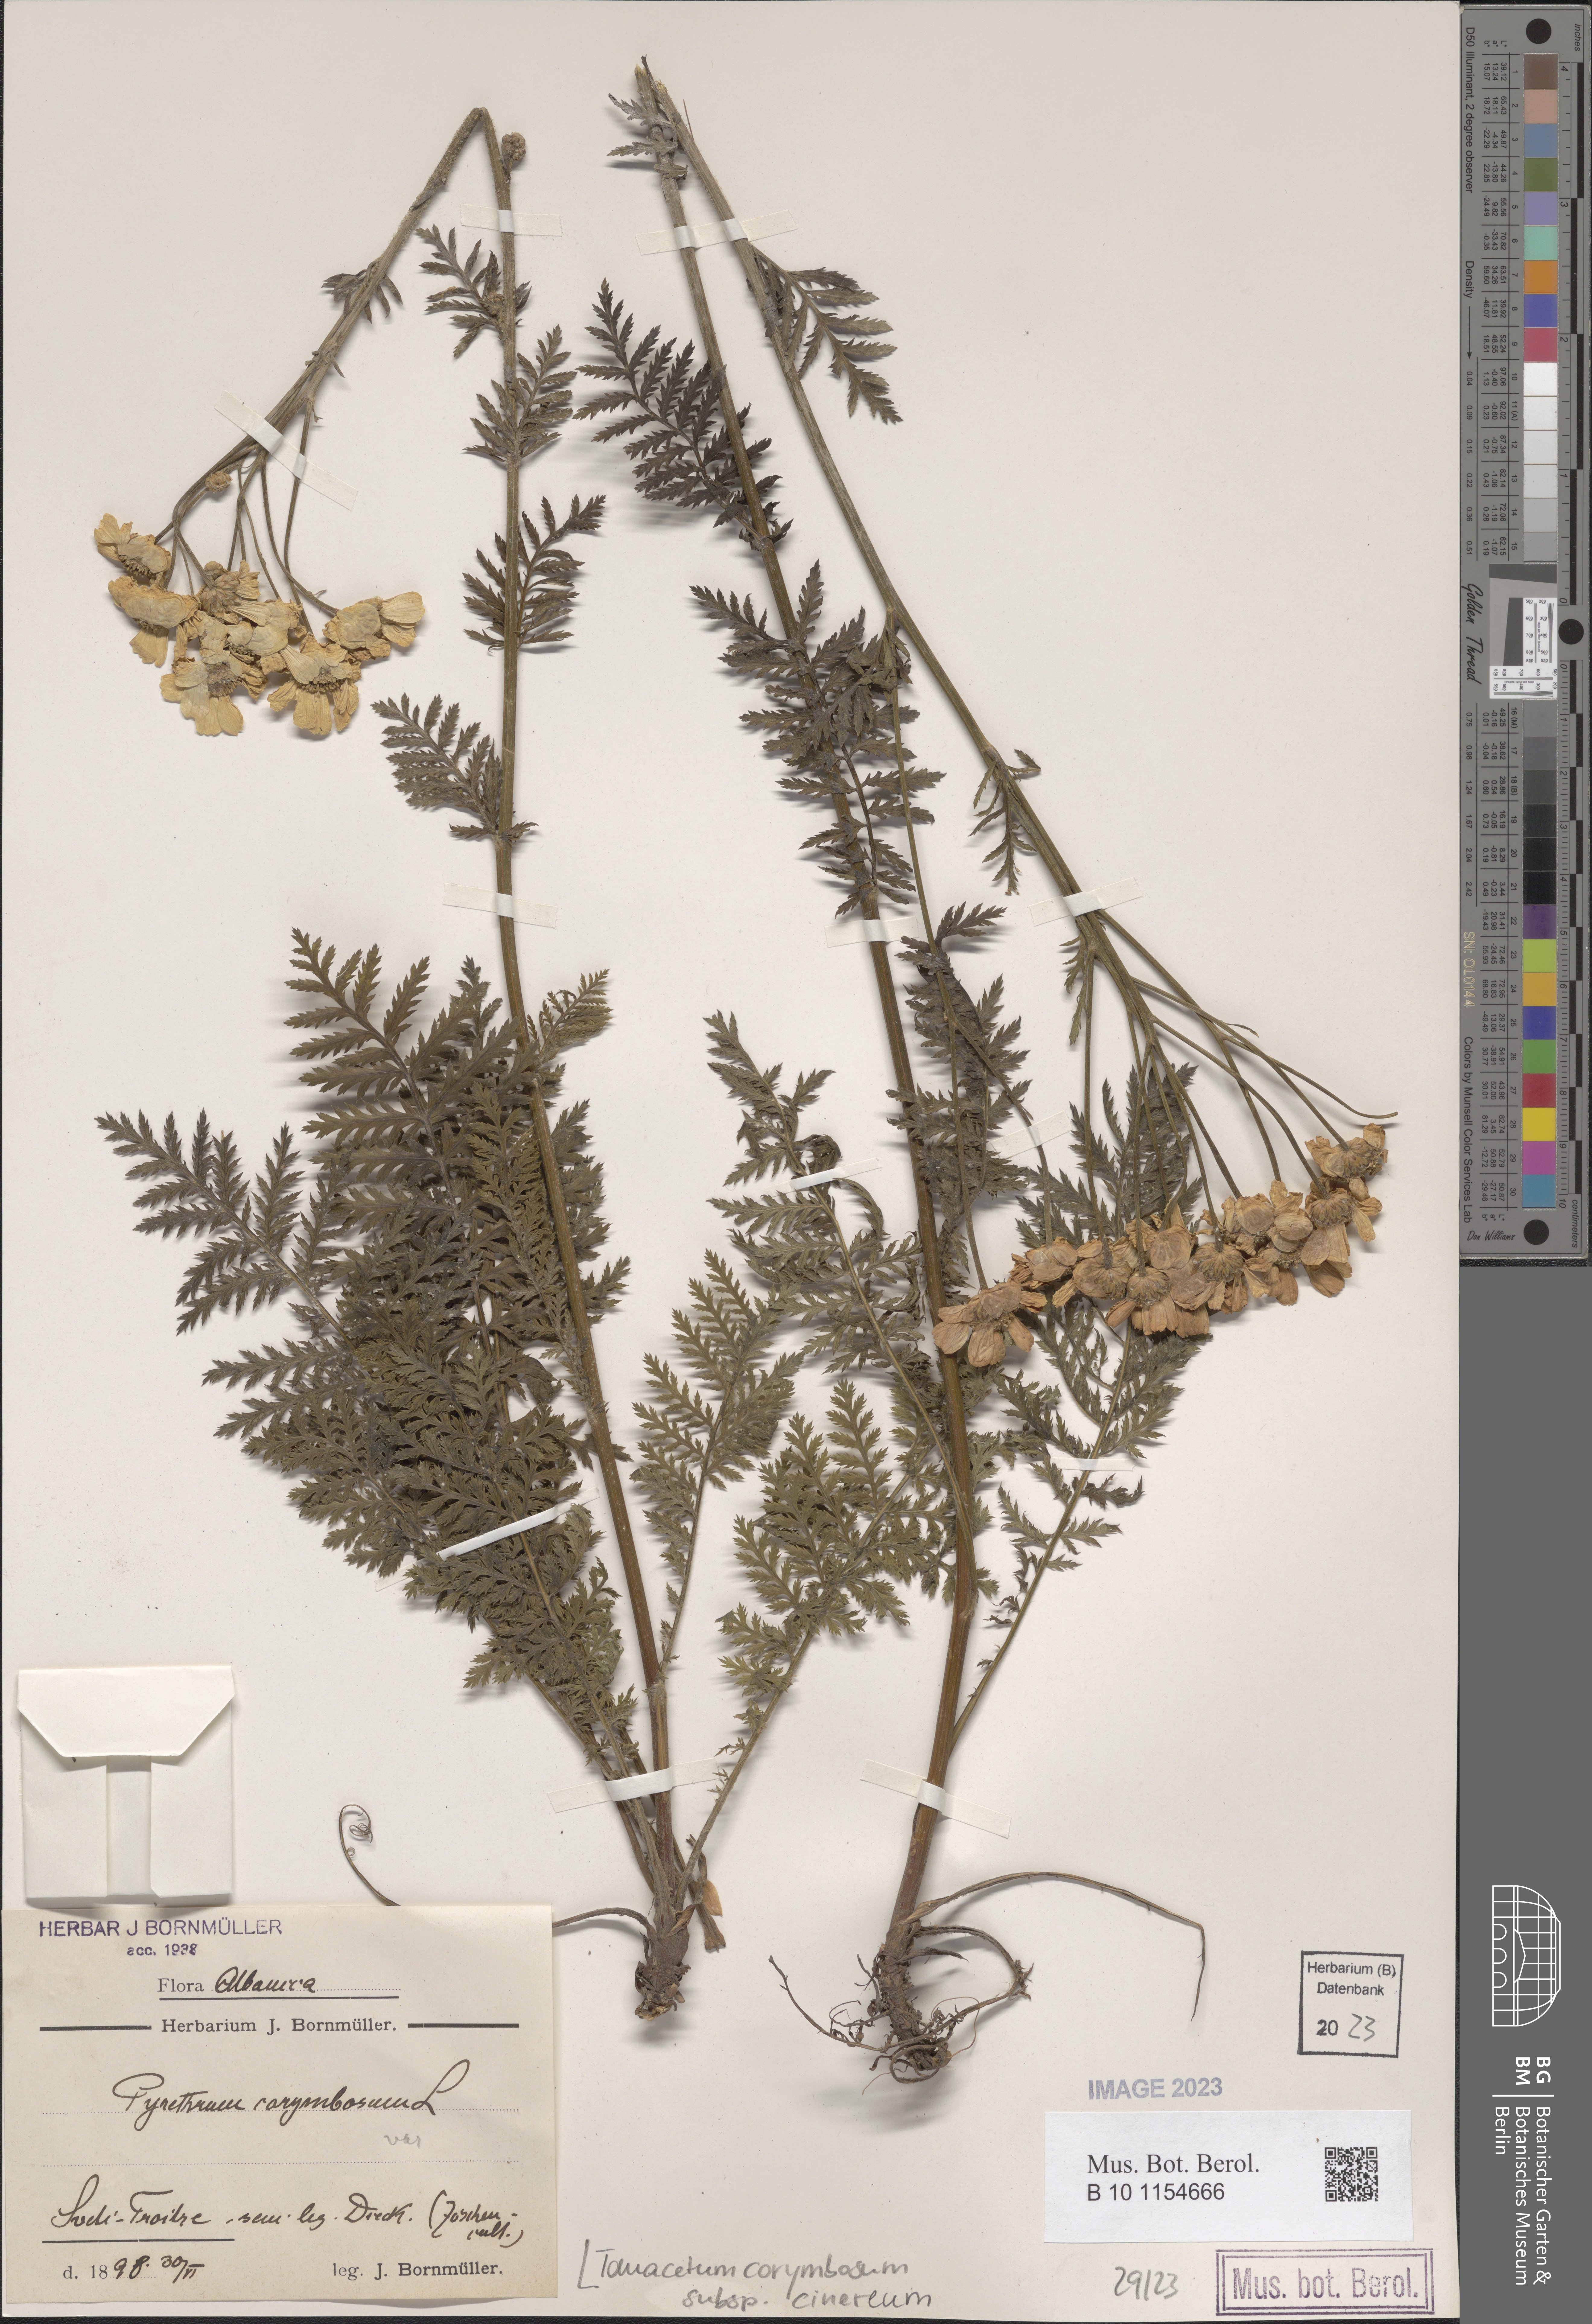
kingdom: Plantae
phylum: Tracheophyta
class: Magnoliopsida
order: Asterales
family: Asteraceae
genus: Tanacetum
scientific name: Tanacetum corymbosum
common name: Scentless feverfew
